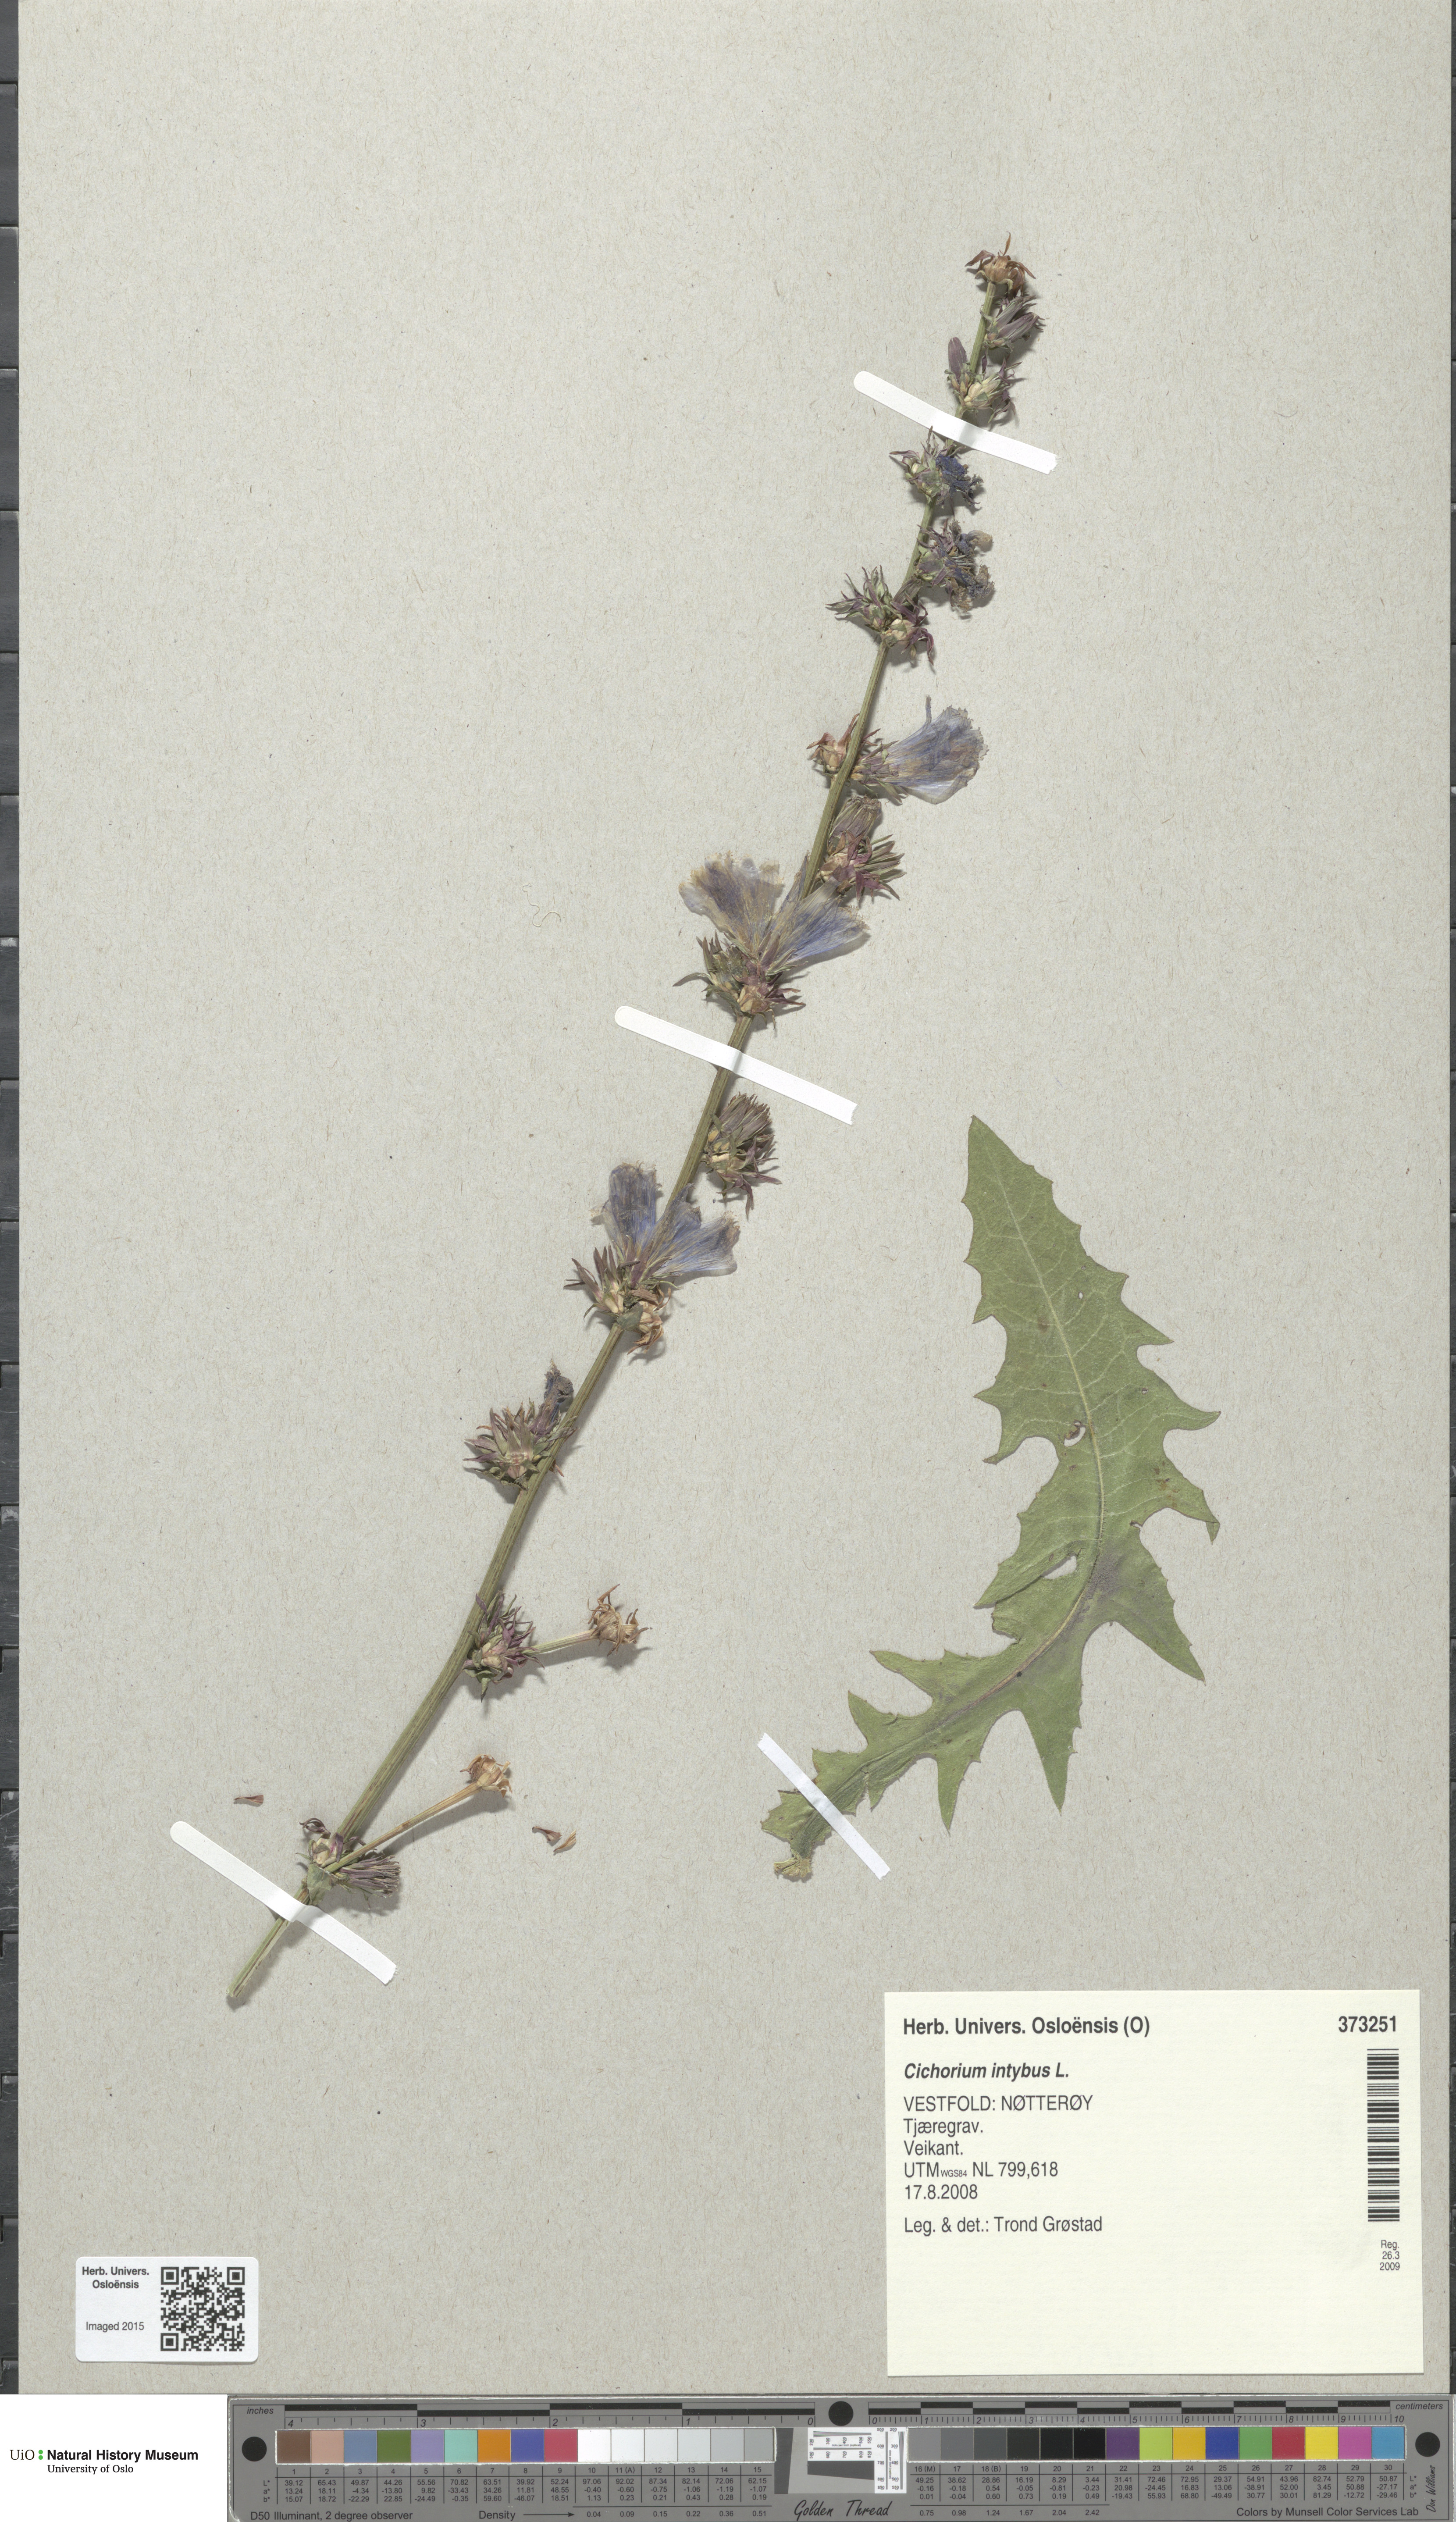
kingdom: Plantae
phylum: Tracheophyta
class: Magnoliopsida
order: Asterales
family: Asteraceae
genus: Cichorium
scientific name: Cichorium intybus
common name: Chicory
